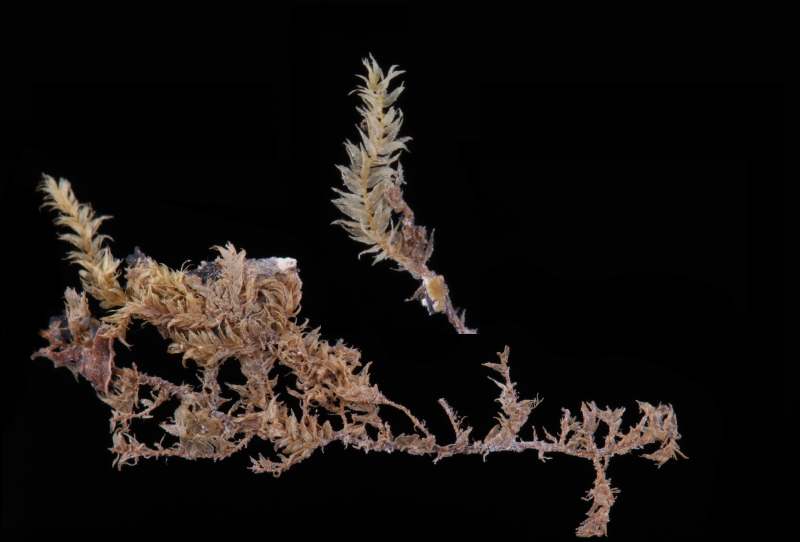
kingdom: Plantae
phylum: Bryophyta
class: Bryopsida
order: Hookeriales
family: Pilotrichaceae
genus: Thamniopsis
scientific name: Thamniopsis utacamundiana
